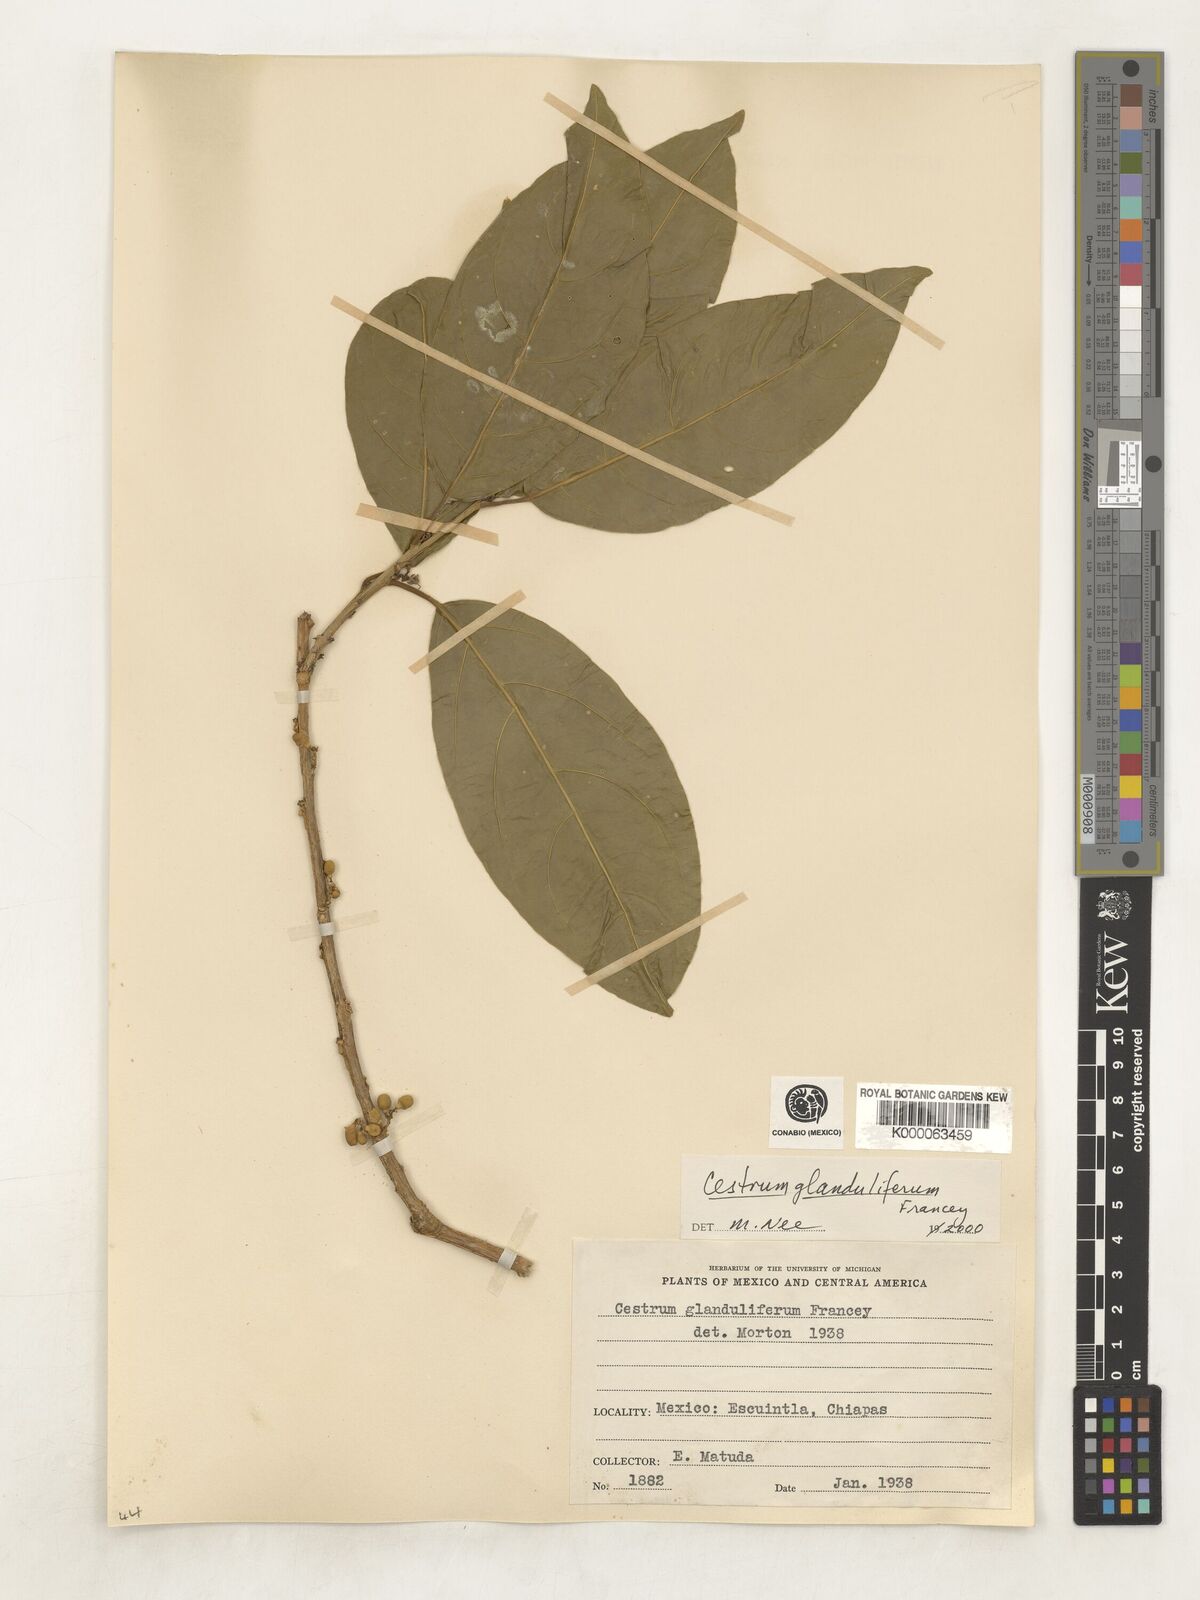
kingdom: Plantae
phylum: Tracheophyta
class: Magnoliopsida
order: Solanales
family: Solanaceae
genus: Cestrum
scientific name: Cestrum glanduliferum
